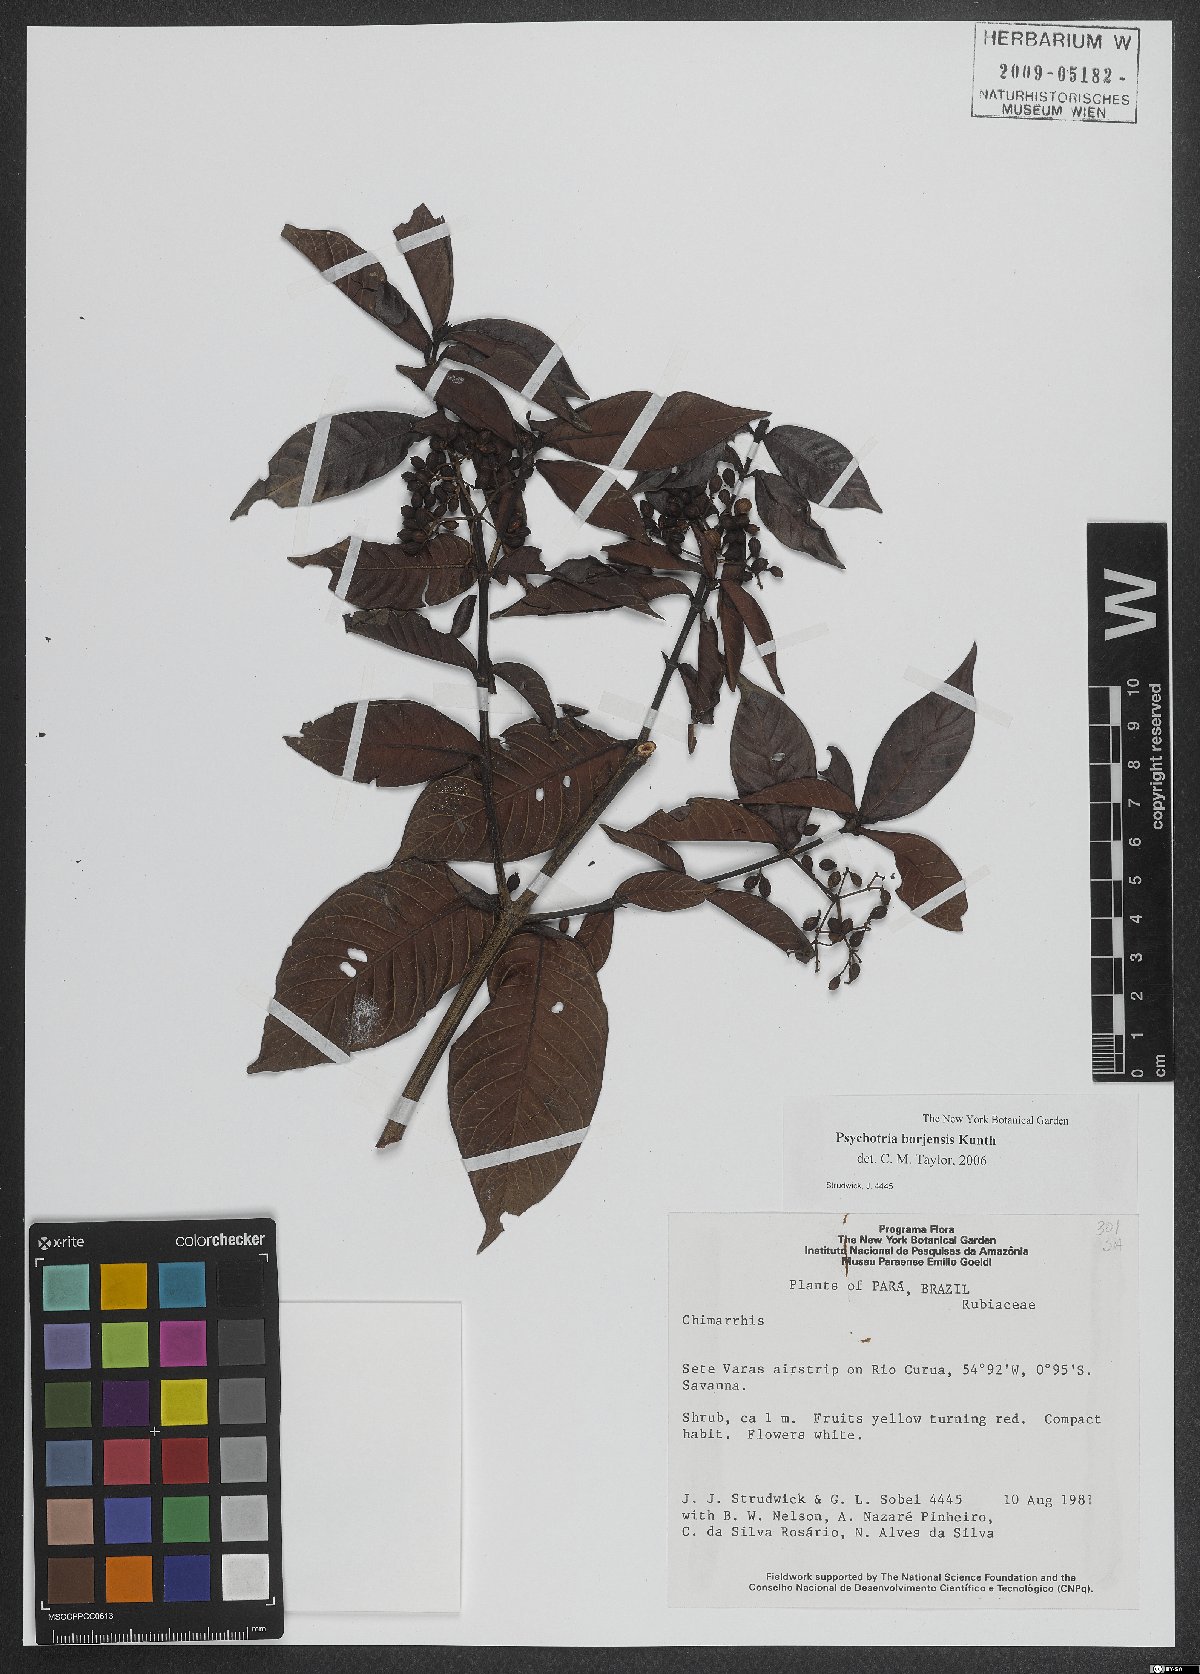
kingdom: Plantae
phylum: Tracheophyta
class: Magnoliopsida
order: Gentianales
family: Rubiaceae
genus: Psychotria
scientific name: Psychotria borjensis
